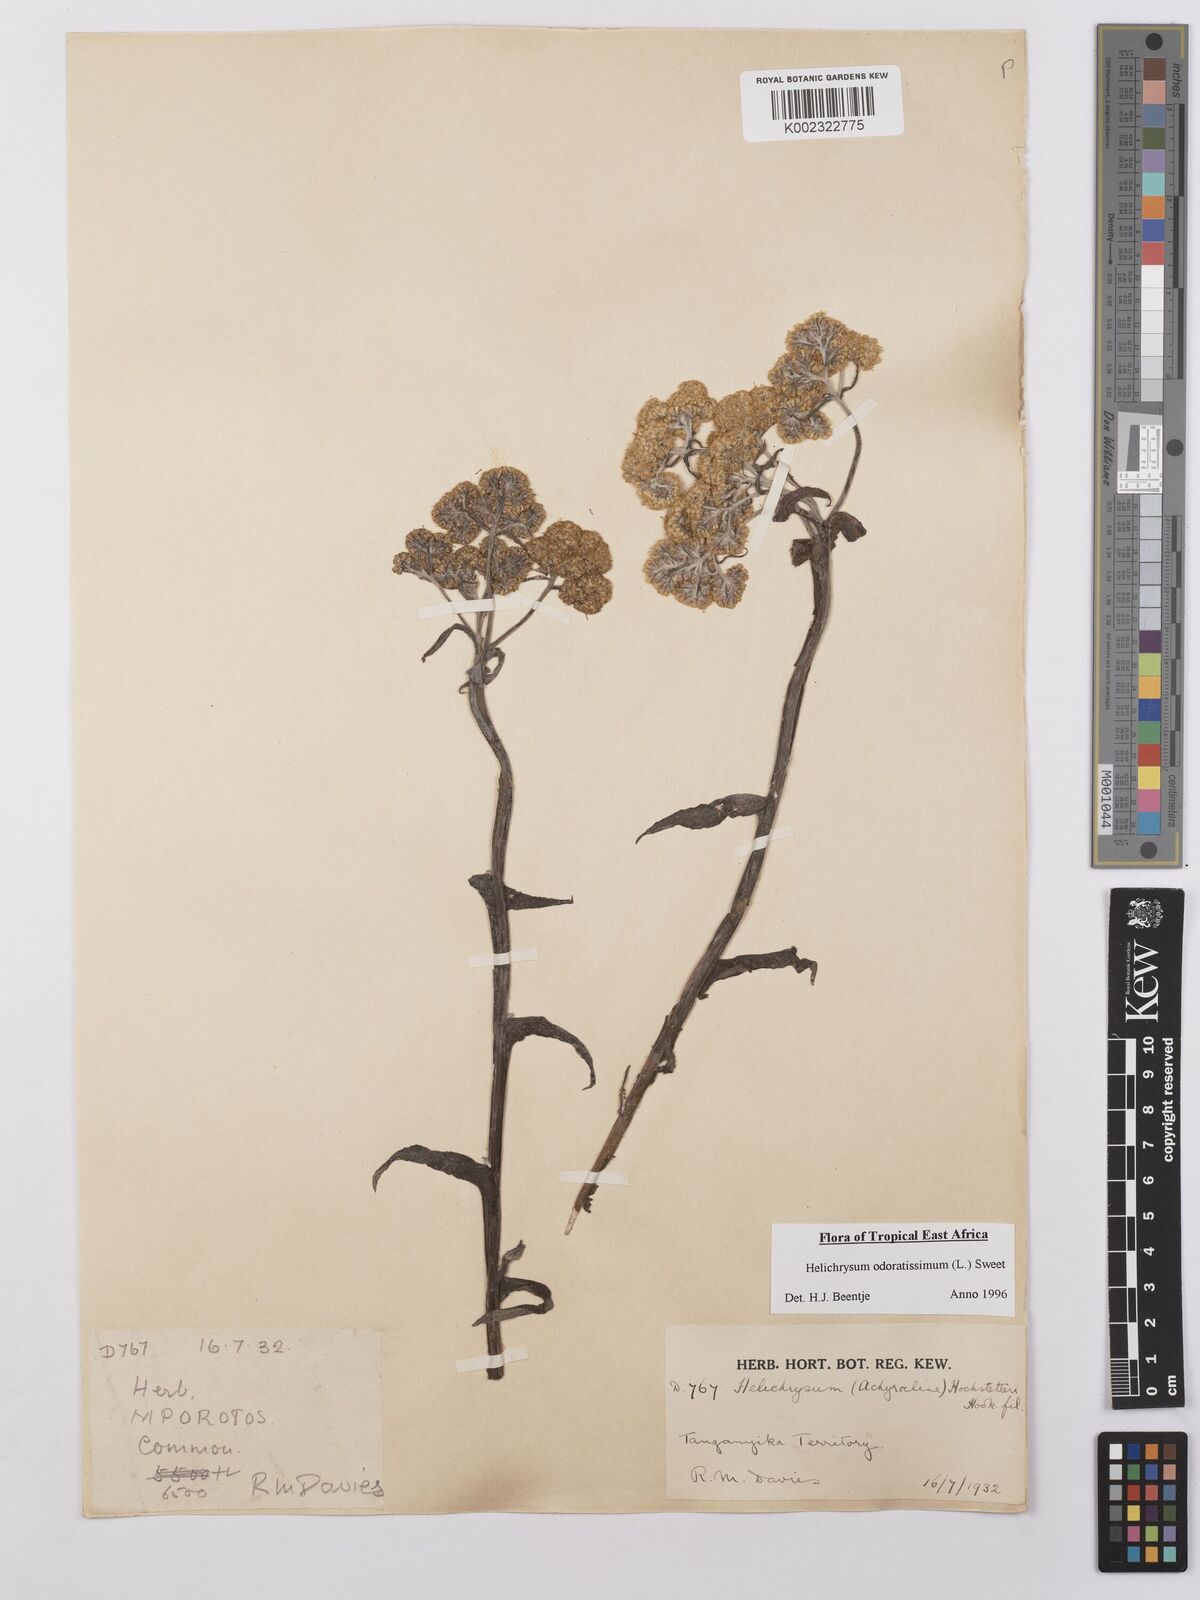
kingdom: Plantae
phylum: Tracheophyta
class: Magnoliopsida
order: Asterales
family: Asteraceae
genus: Helichrysum
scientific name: Helichrysum odoratissimum
